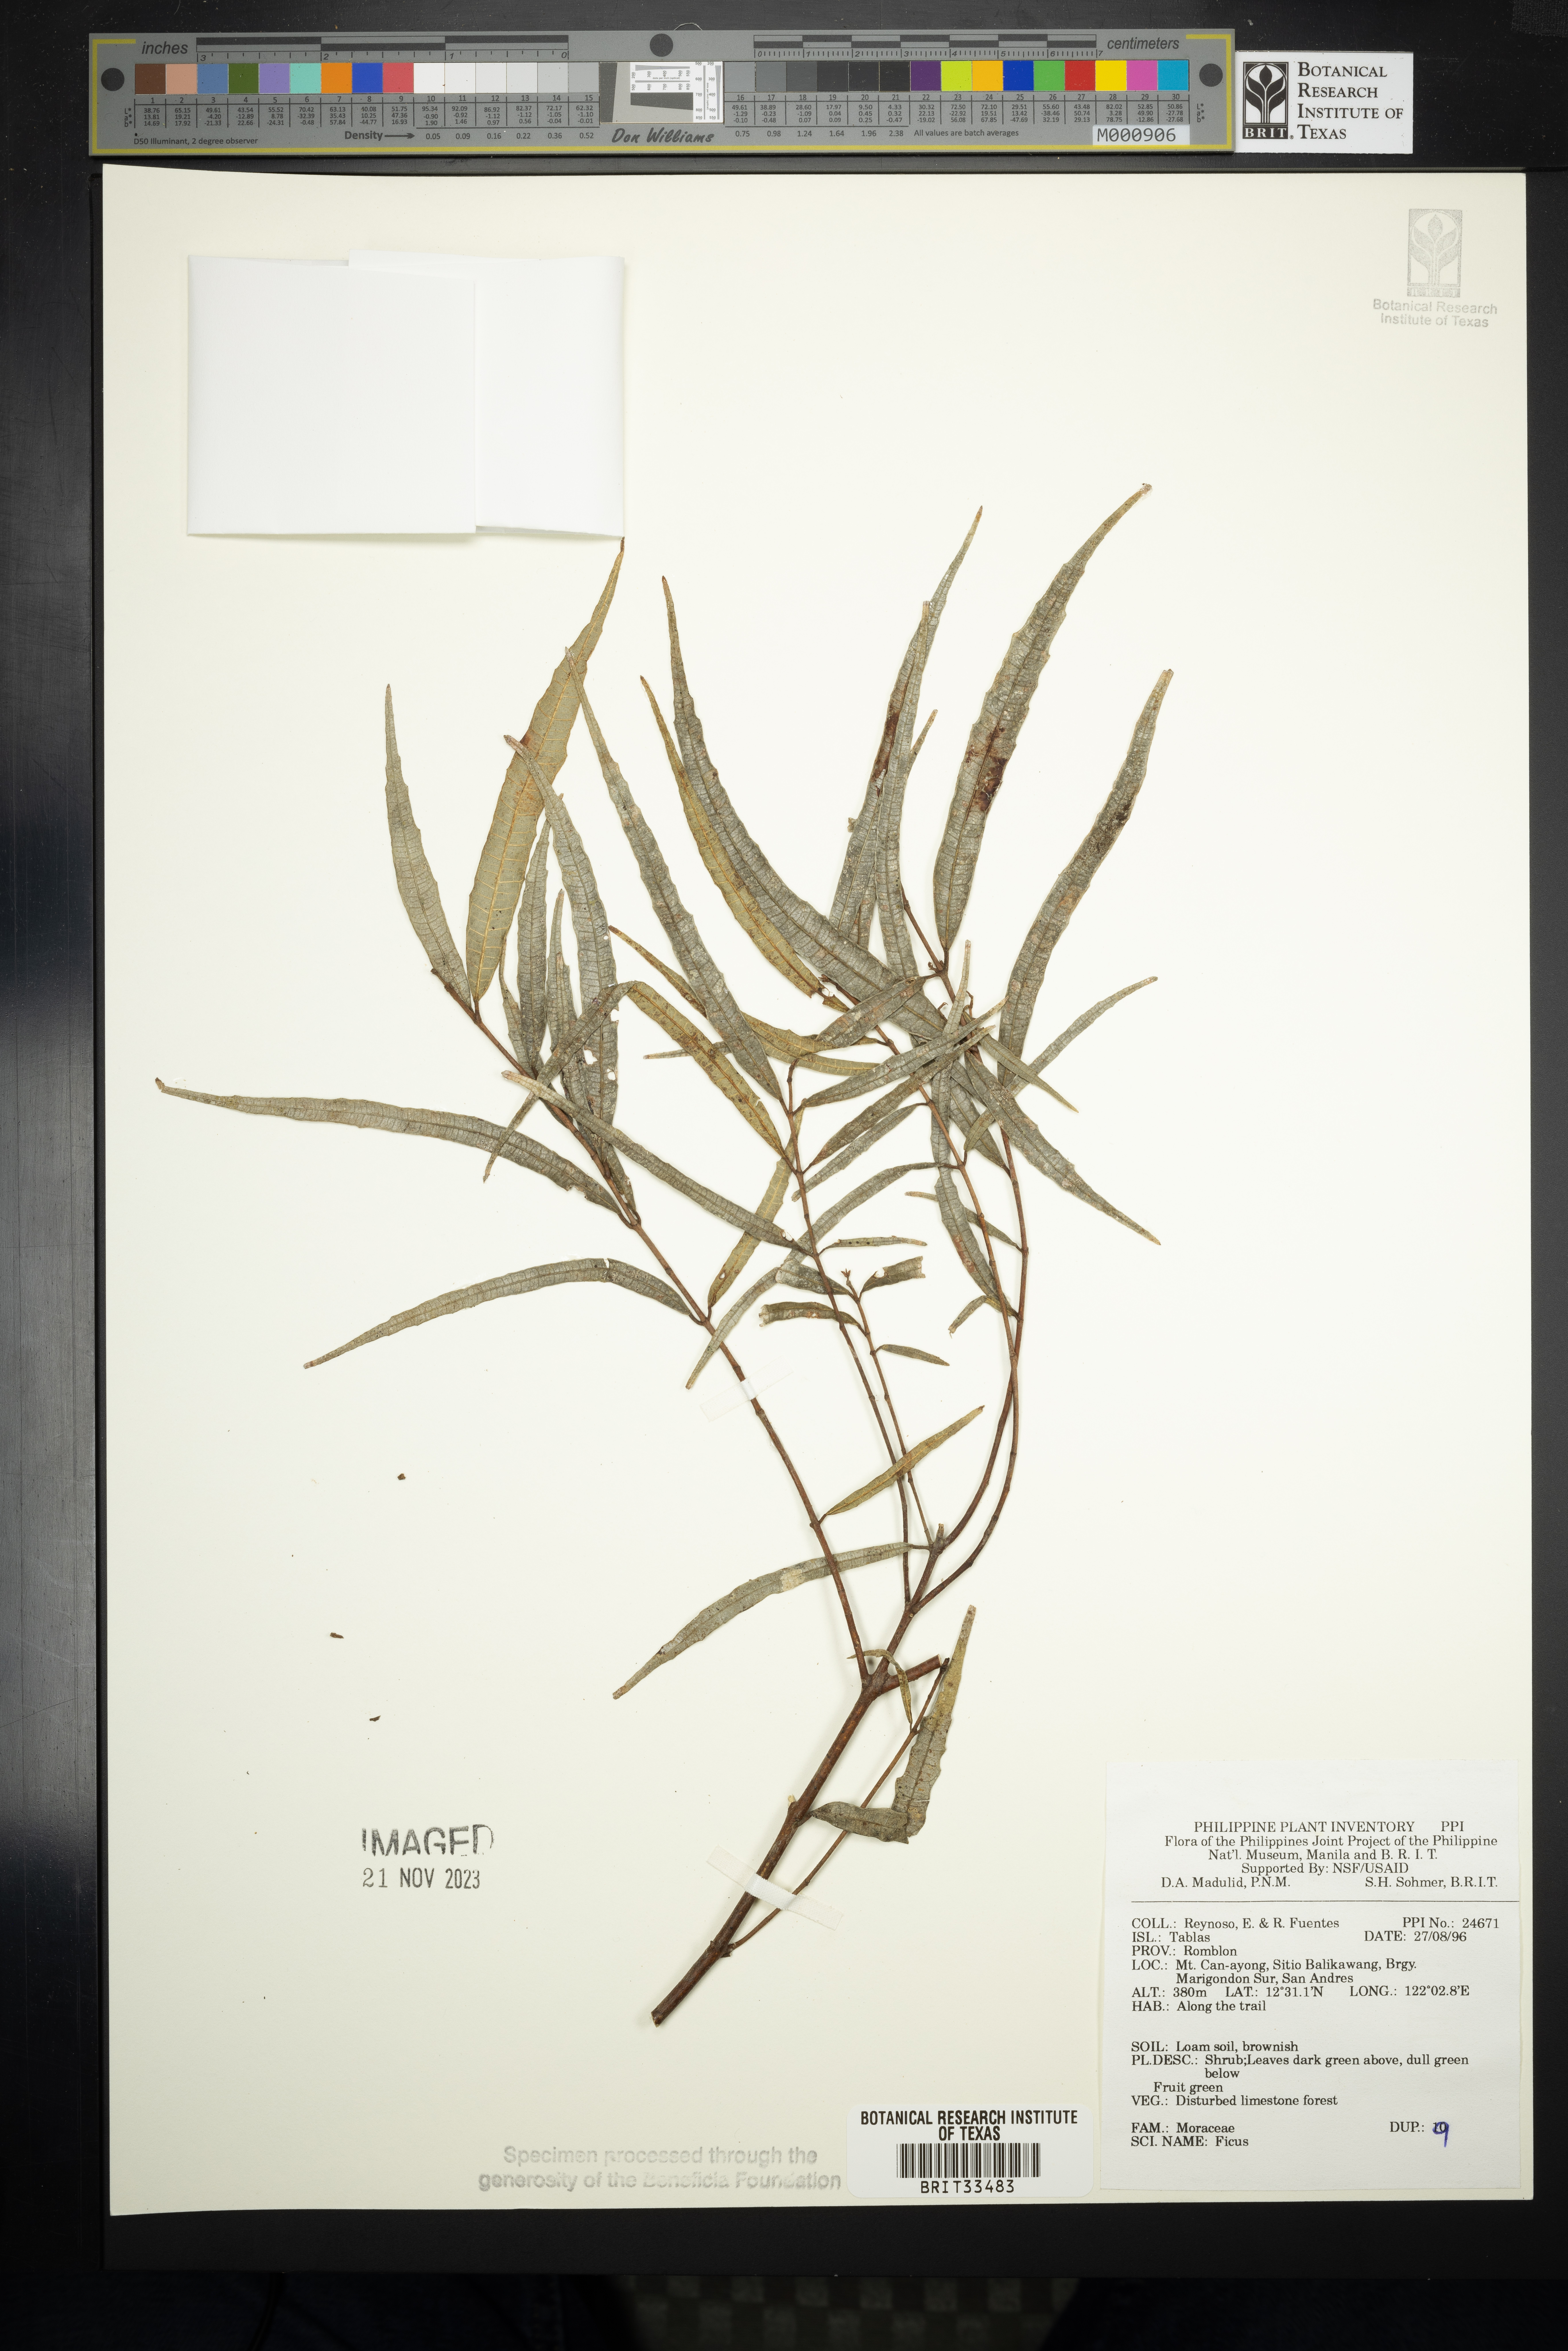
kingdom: Plantae
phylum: Tracheophyta
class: Magnoliopsida
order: Rosales
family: Moraceae
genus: Ficus
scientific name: Ficus
